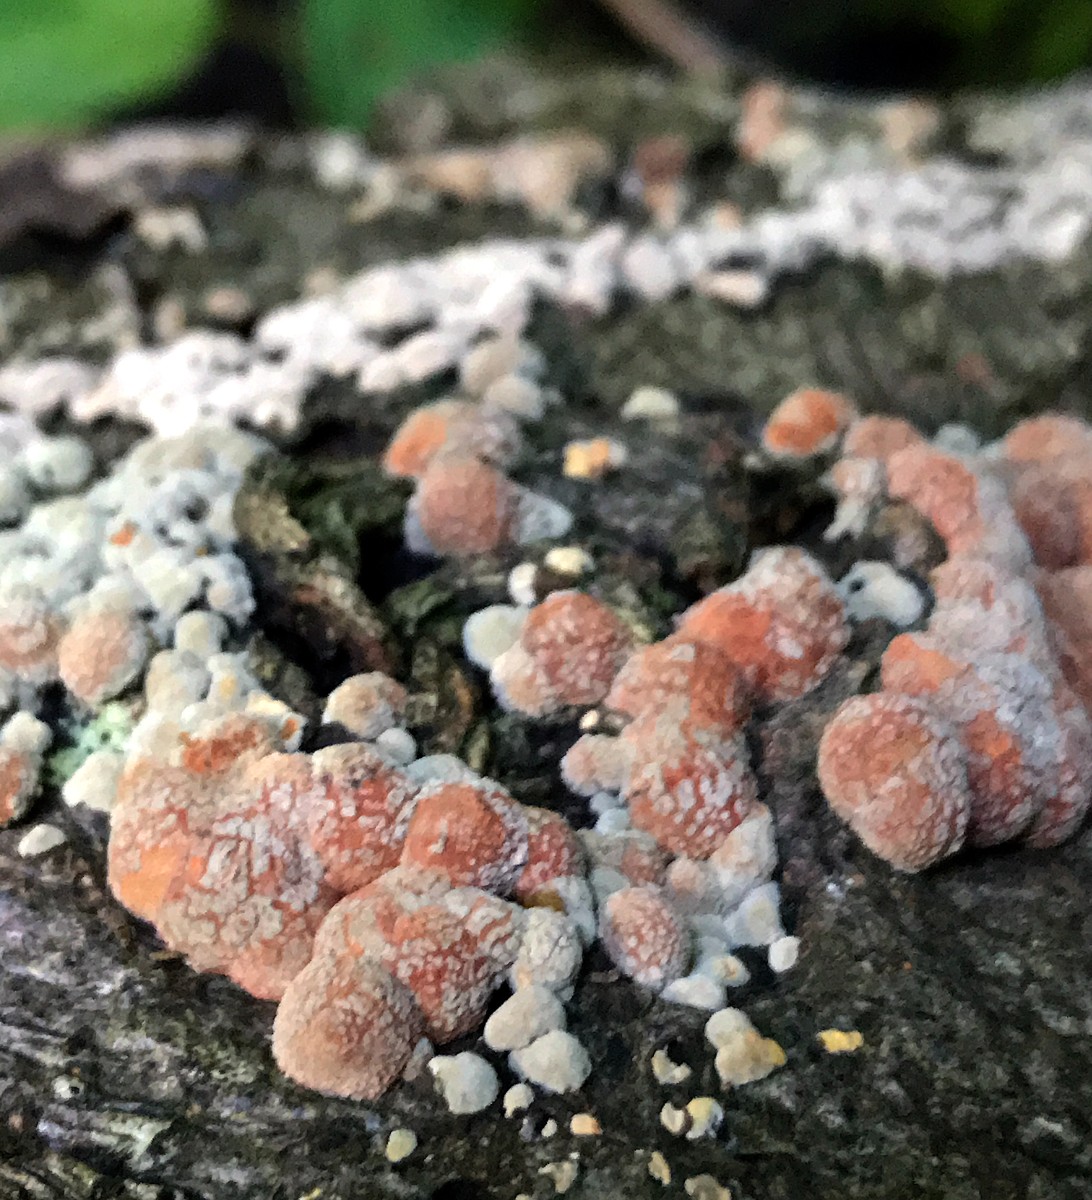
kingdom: Fungi
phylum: Ascomycota
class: Sordariomycetes
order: Xylariales
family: Hypoxylaceae
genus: Hypoxylon
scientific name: Hypoxylon fragiforme
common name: kuljordbær
